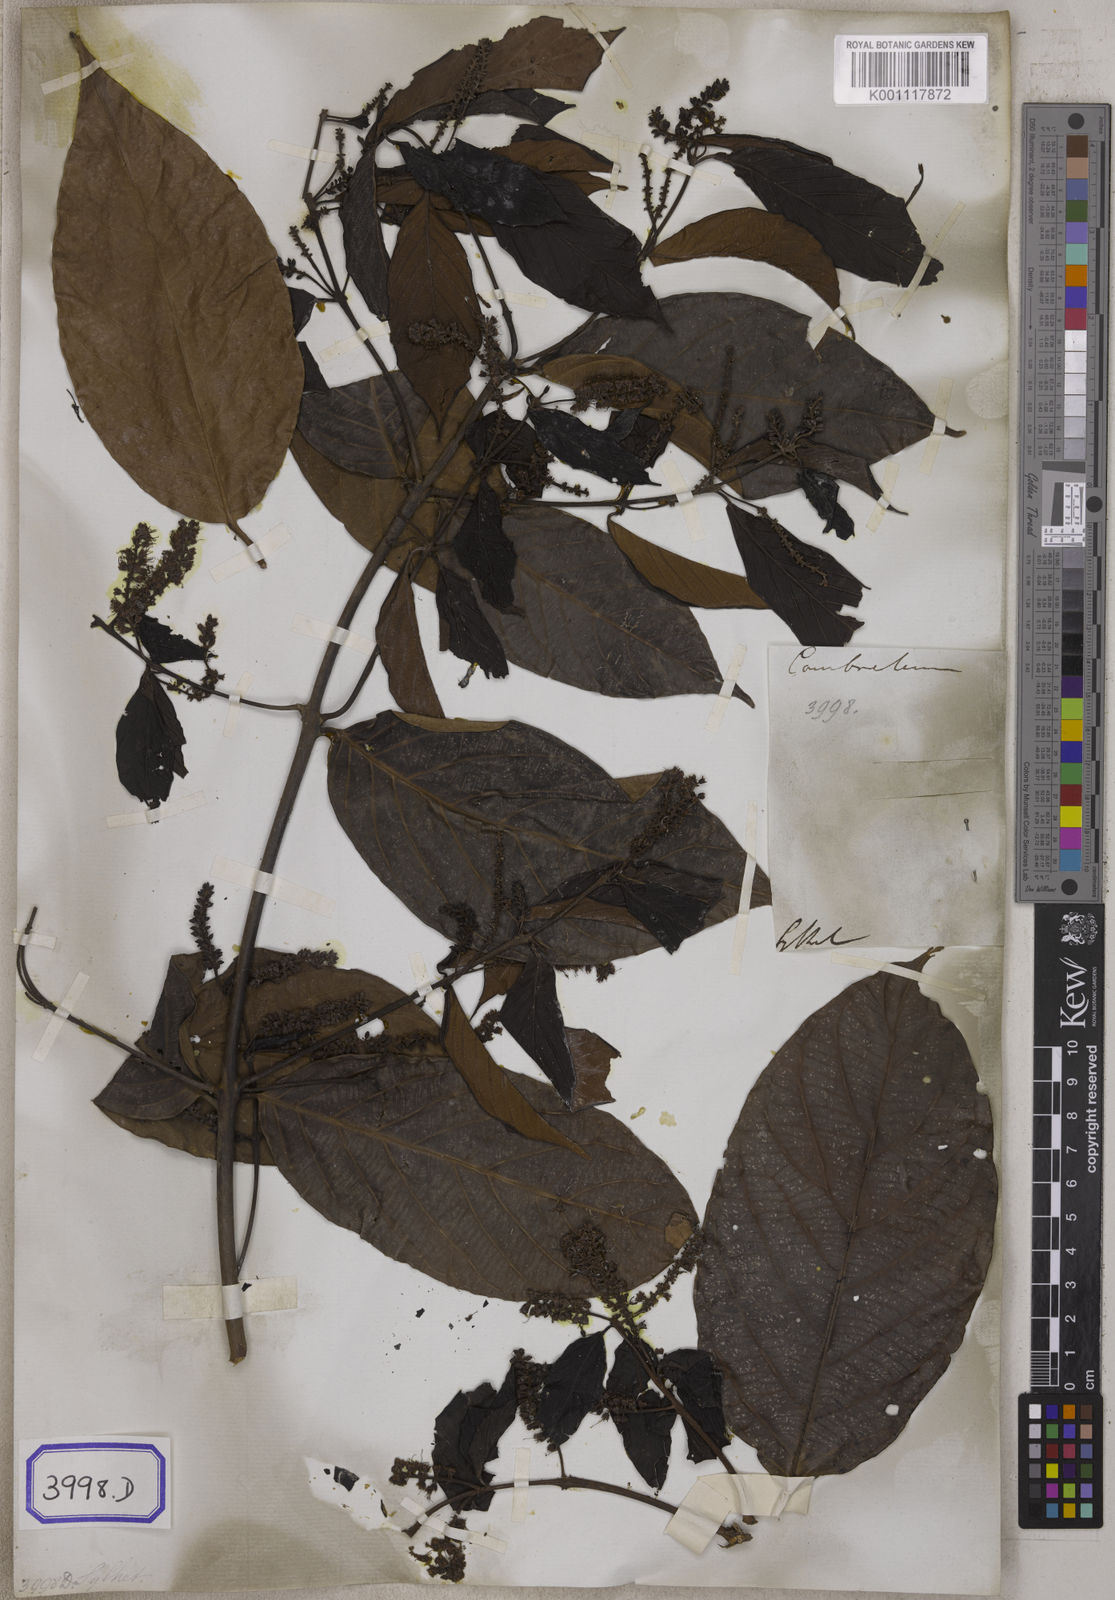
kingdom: Plantae
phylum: Tracheophyta
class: Magnoliopsida
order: Myrtales
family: Combretaceae
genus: Combretum
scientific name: Combretum acuminatum
